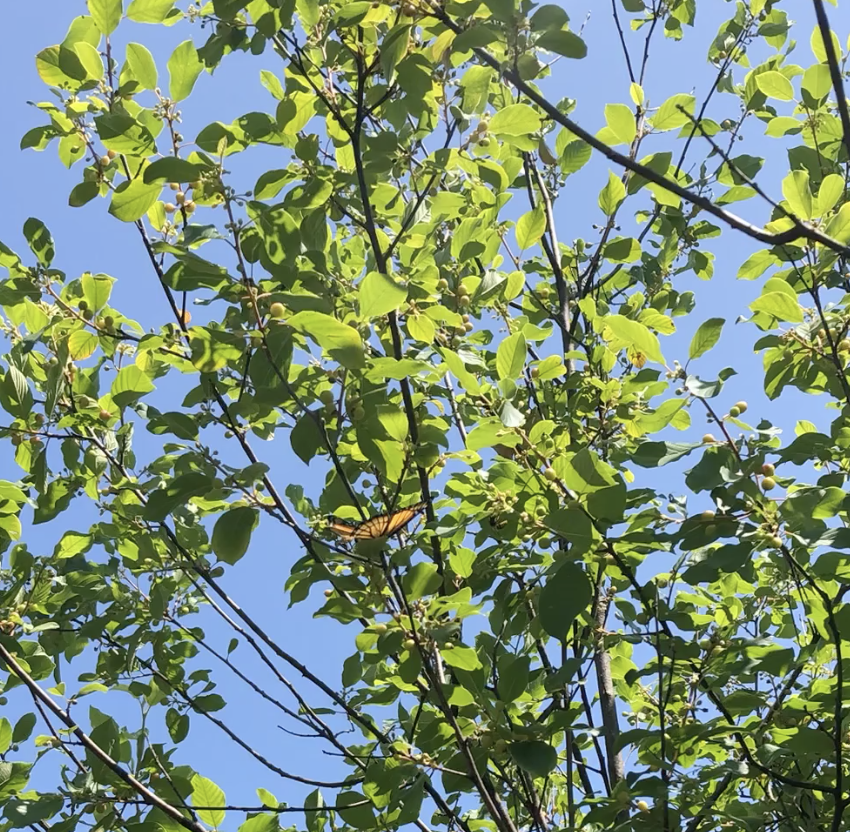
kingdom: Animalia
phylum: Arthropoda
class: Insecta
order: Lepidoptera
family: Nymphalidae
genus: Limenitis
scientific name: Limenitis archippus
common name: Viceroy
